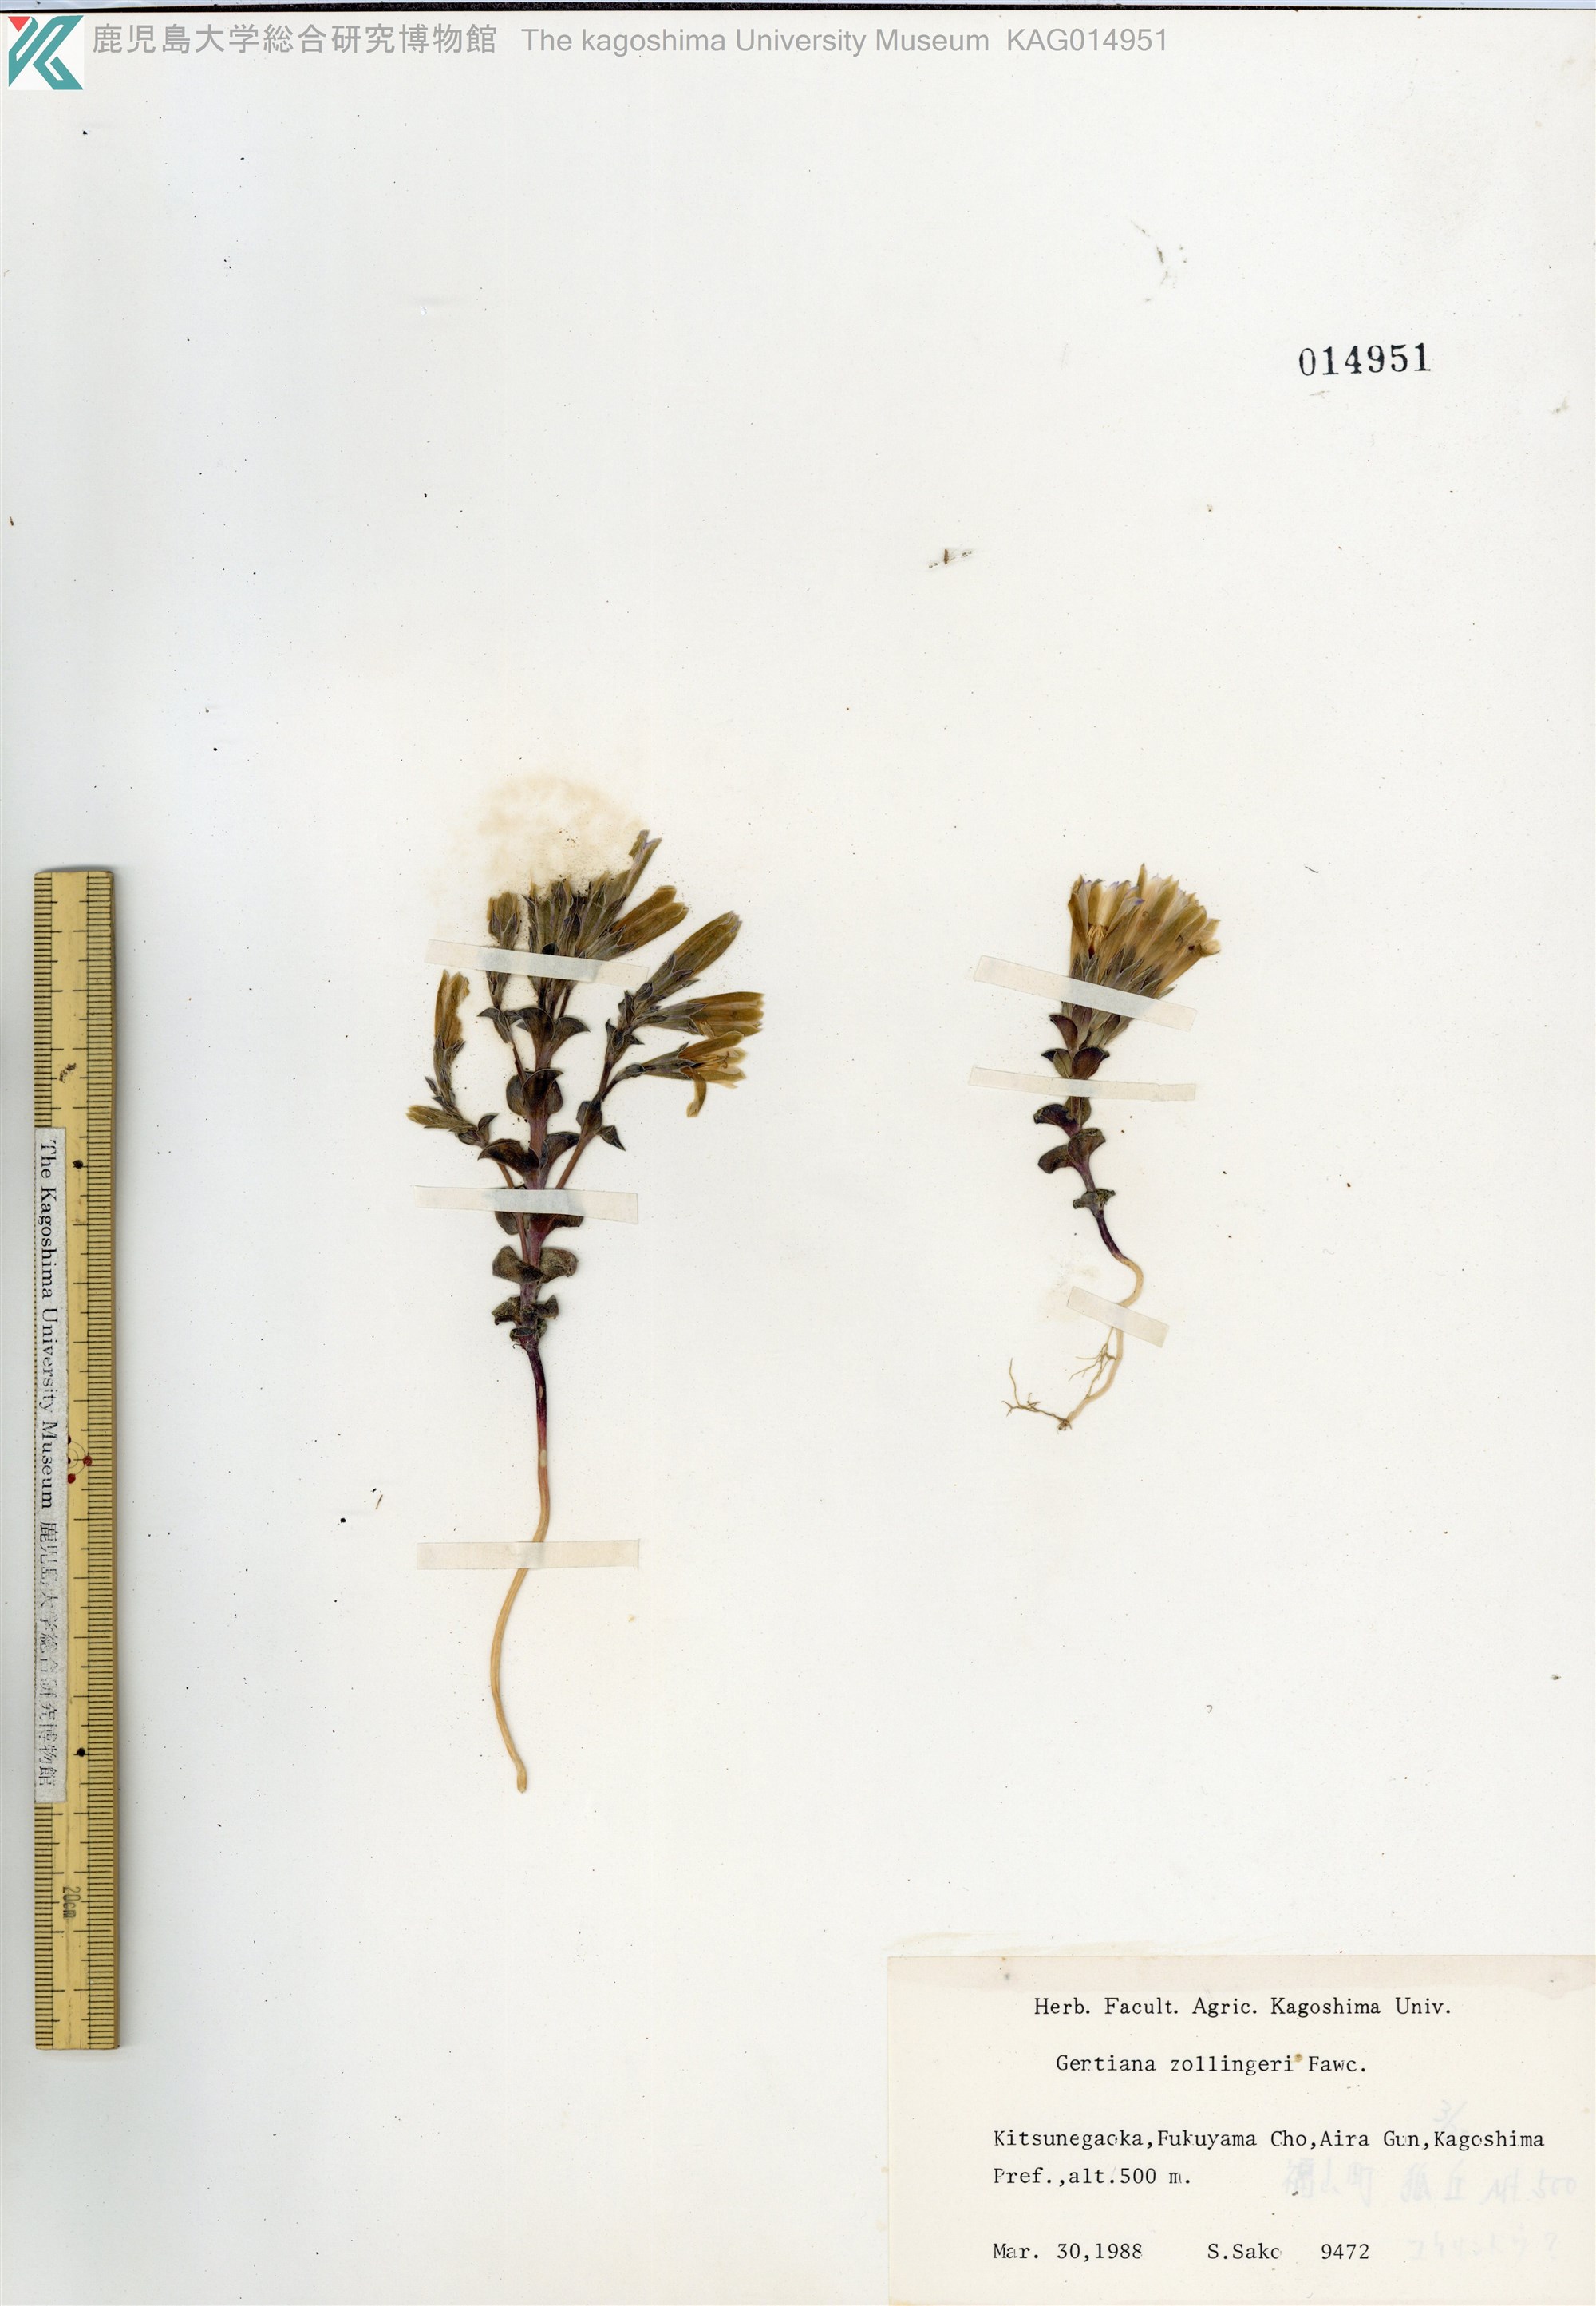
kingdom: Plantae
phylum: Tracheophyta
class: Magnoliopsida
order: Gentianales
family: Gentianaceae
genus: Gentiana
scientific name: Gentiana thunbergii
